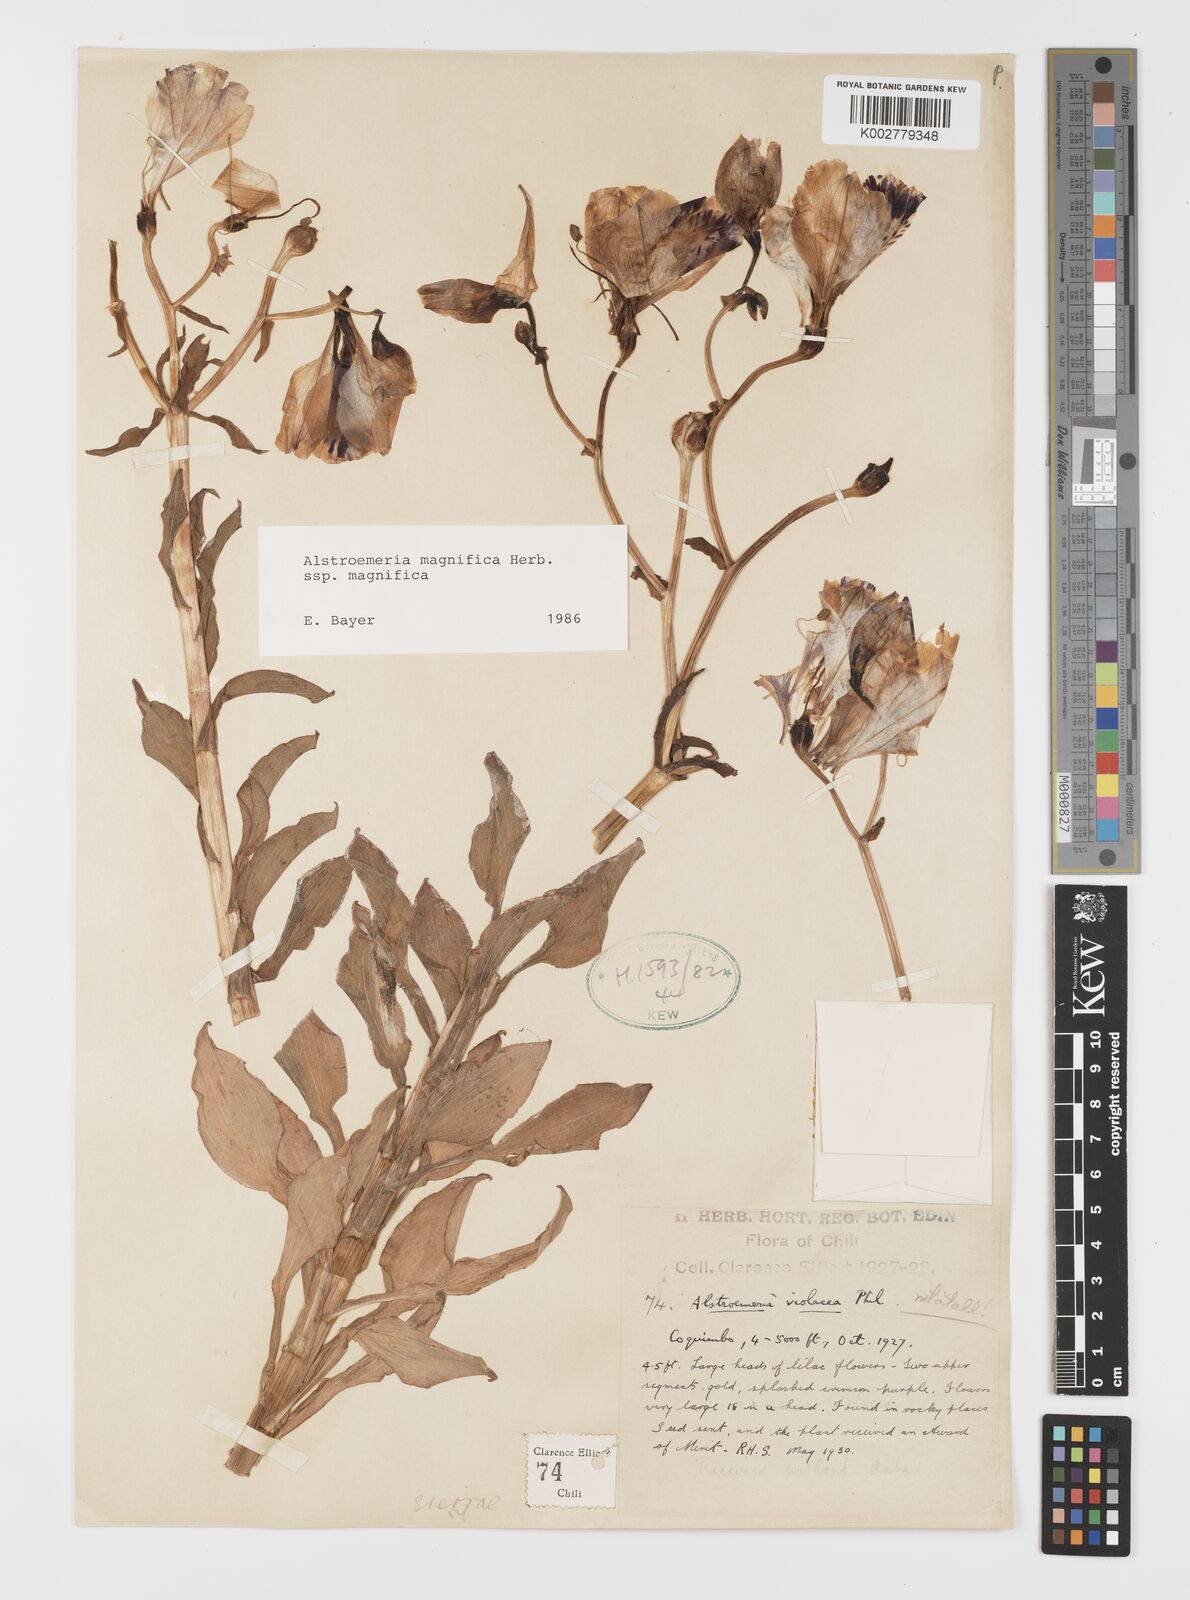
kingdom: Plantae
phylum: Tracheophyta
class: Liliopsida
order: Liliales
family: Alstroemeriaceae
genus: Alstroemeria
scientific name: Alstroemeria magnifica
